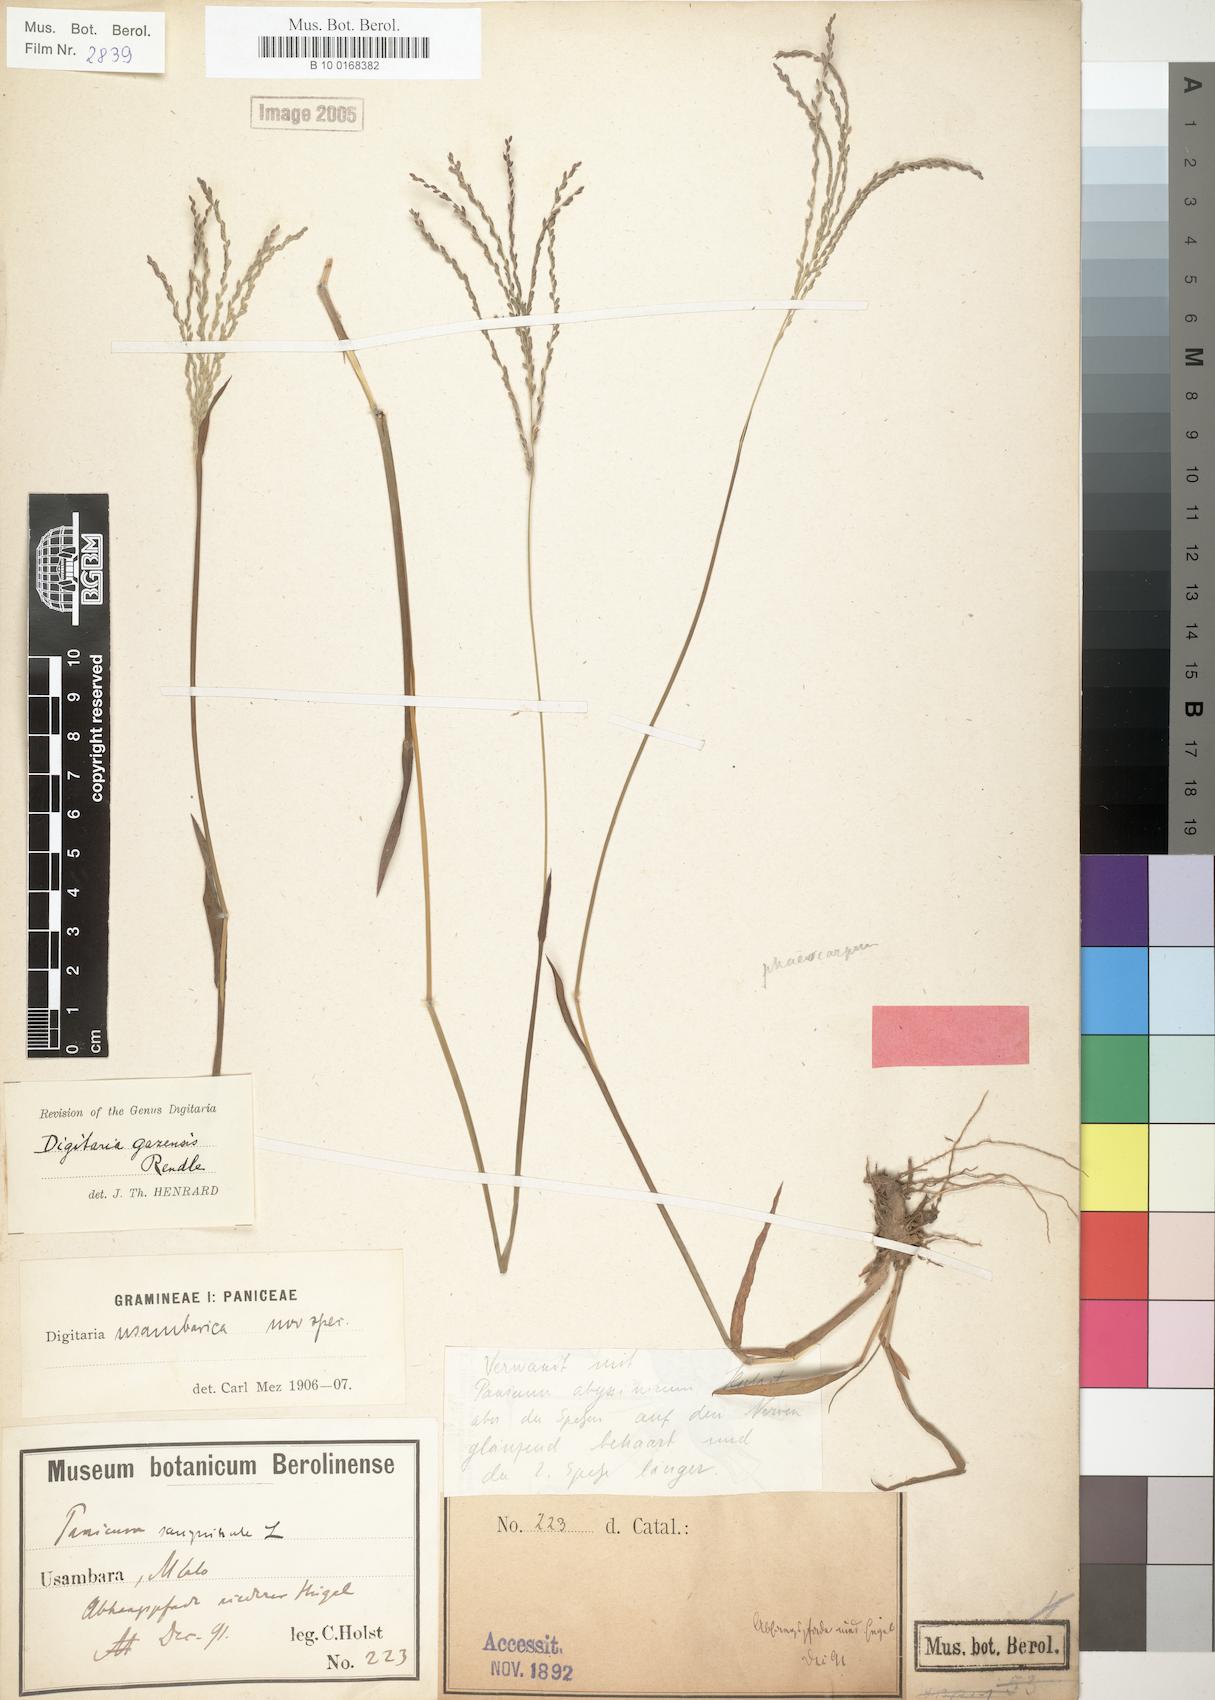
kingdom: Plantae
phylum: Tracheophyta
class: Liliopsida
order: Poales
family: Poaceae
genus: Digitaria
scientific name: Digitaria gazensis
